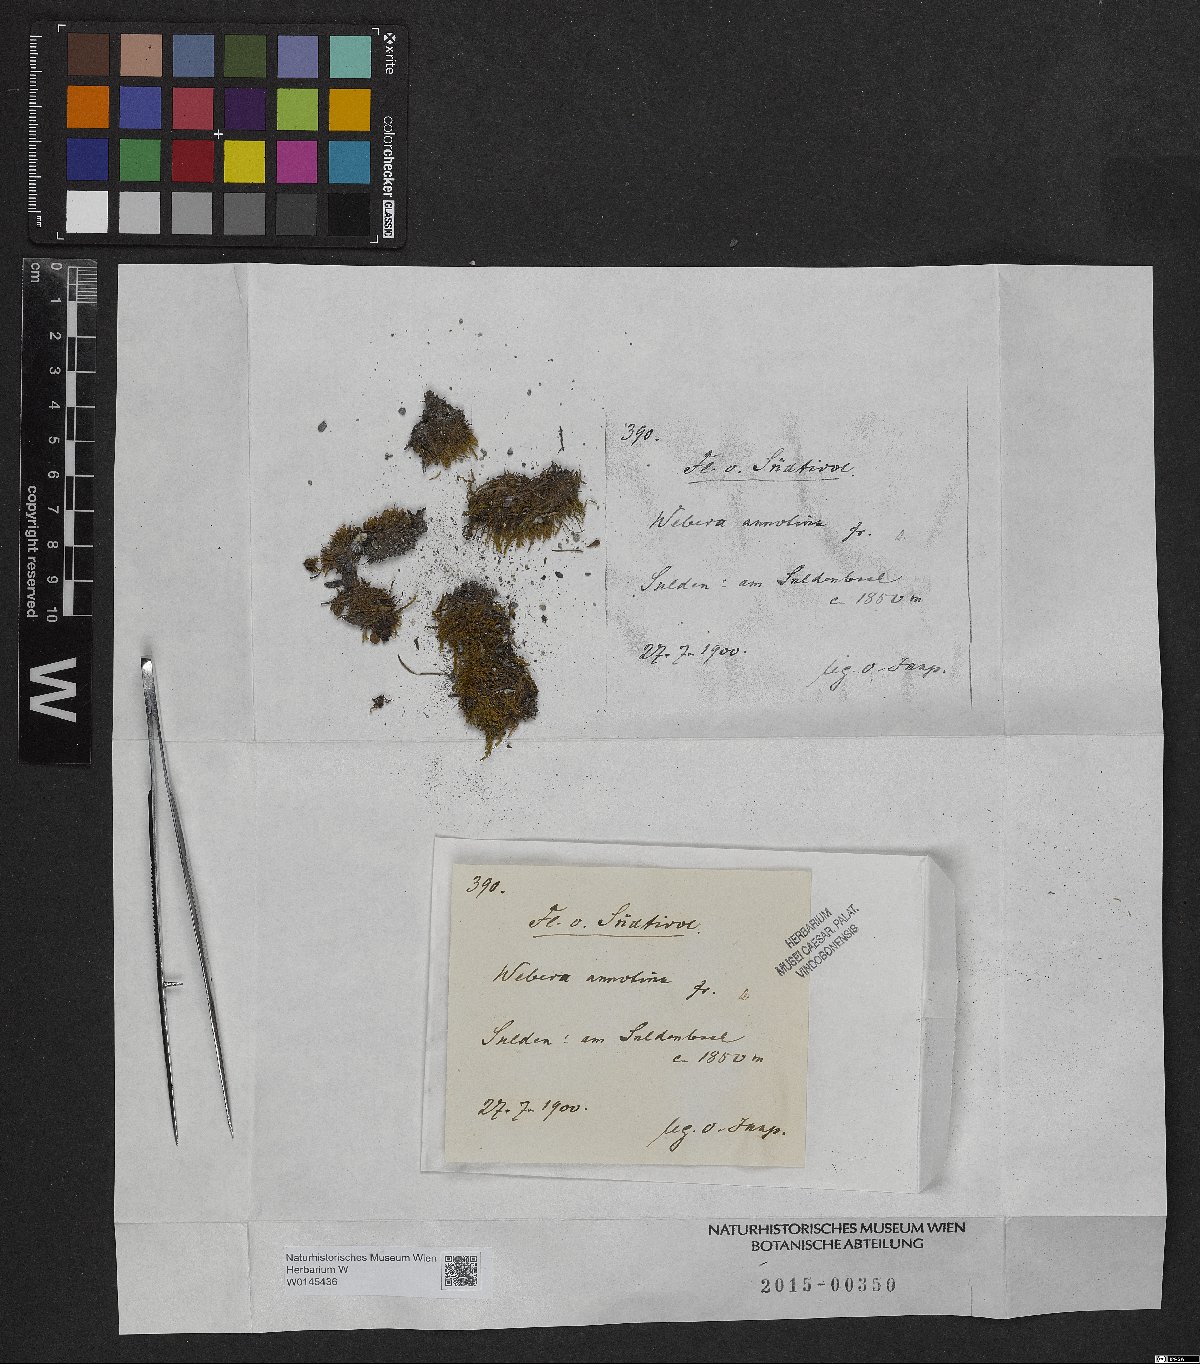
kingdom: Plantae
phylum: Bryophyta
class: Bryopsida
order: Bryales
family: Mniaceae
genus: Pohlia
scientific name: Pohlia annotina
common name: Pale-fruited nodding moss
